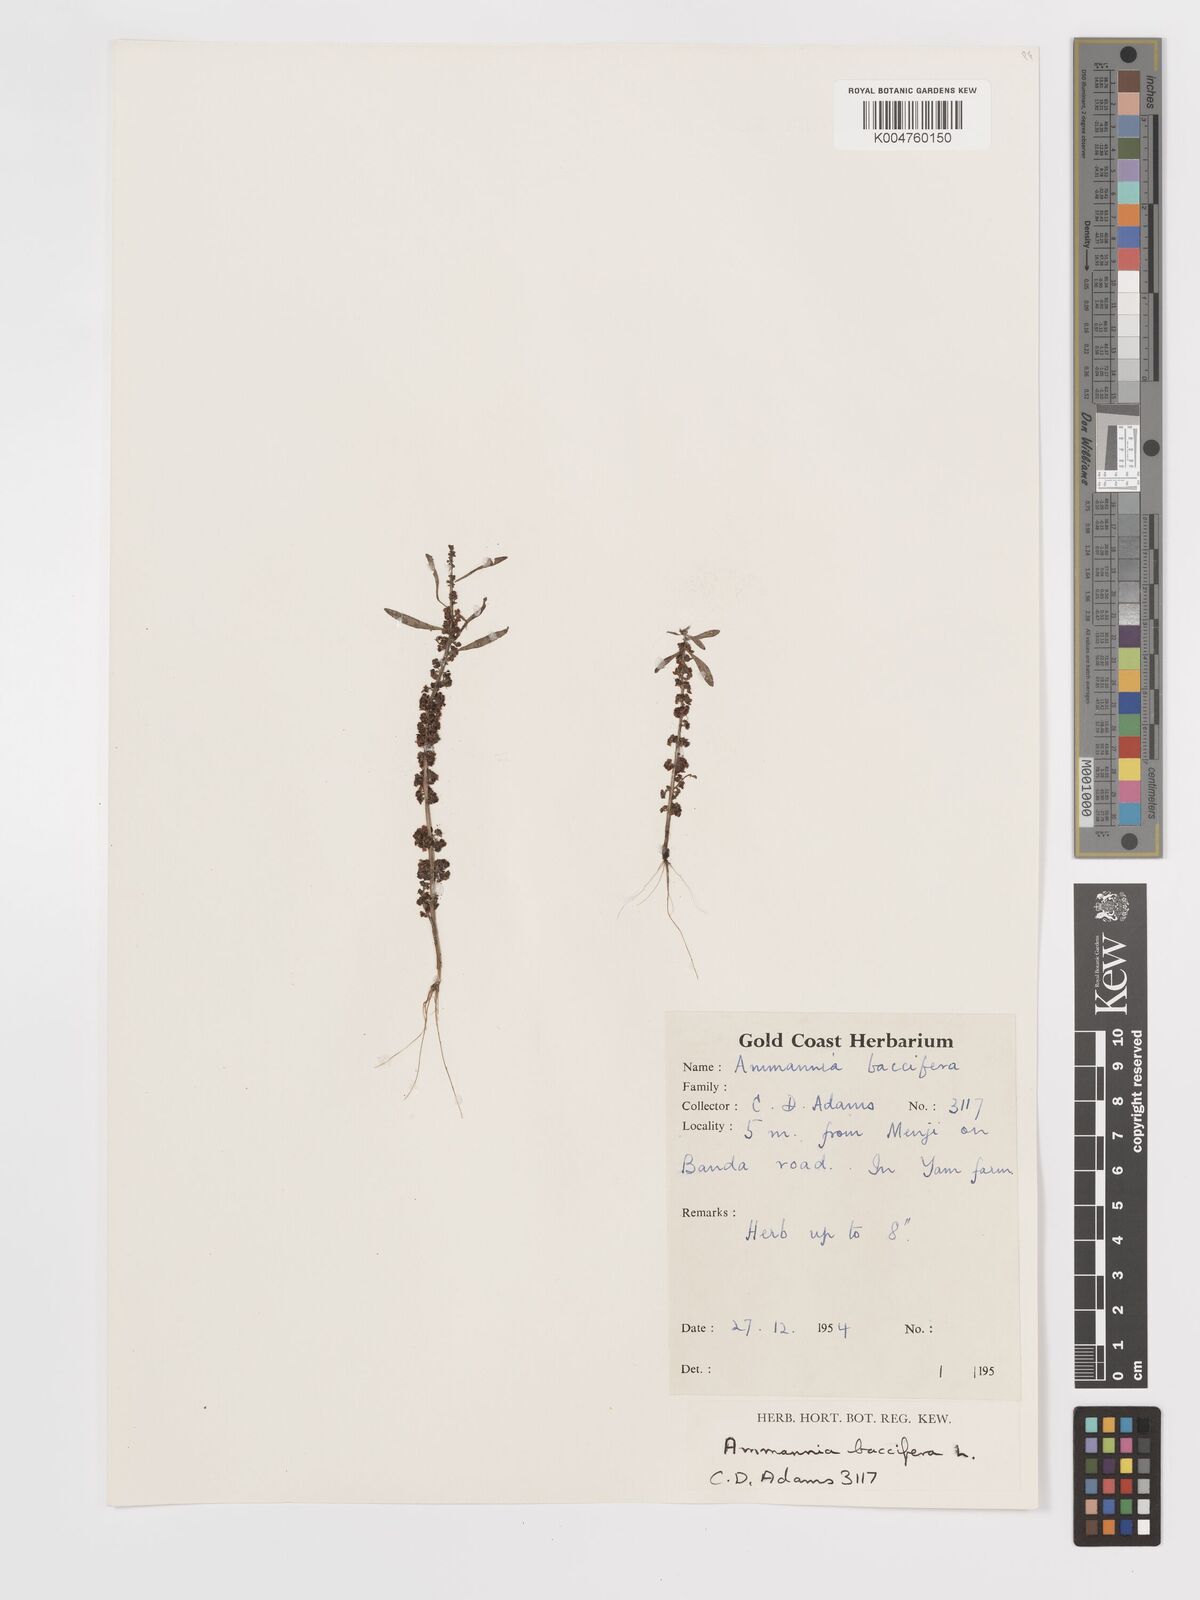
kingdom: Plantae
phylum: Tracheophyta
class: Magnoliopsida
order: Myrtales
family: Lythraceae
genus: Ammannia
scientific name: Ammannia
